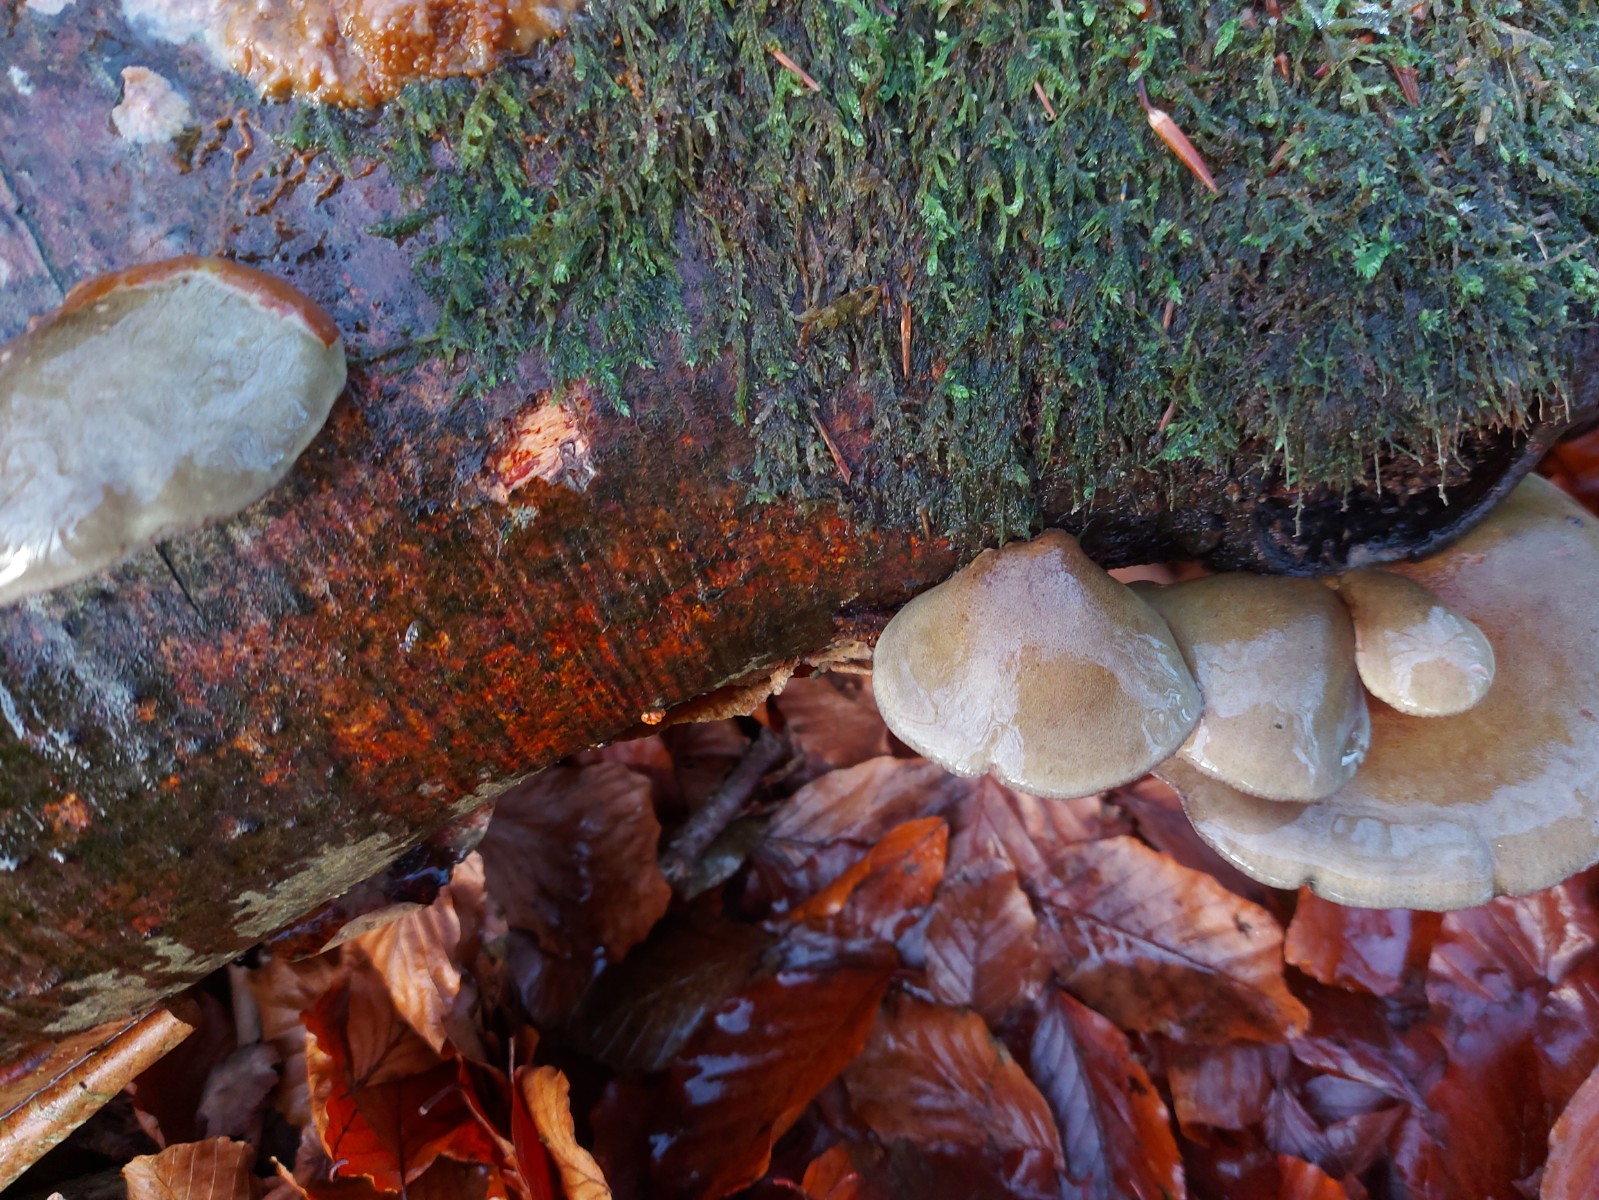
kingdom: Fungi
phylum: Basidiomycota
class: Agaricomycetes
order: Agaricales
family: Sarcomyxaceae
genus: Sarcomyxa
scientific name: Sarcomyxa serotina
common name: gummihat
